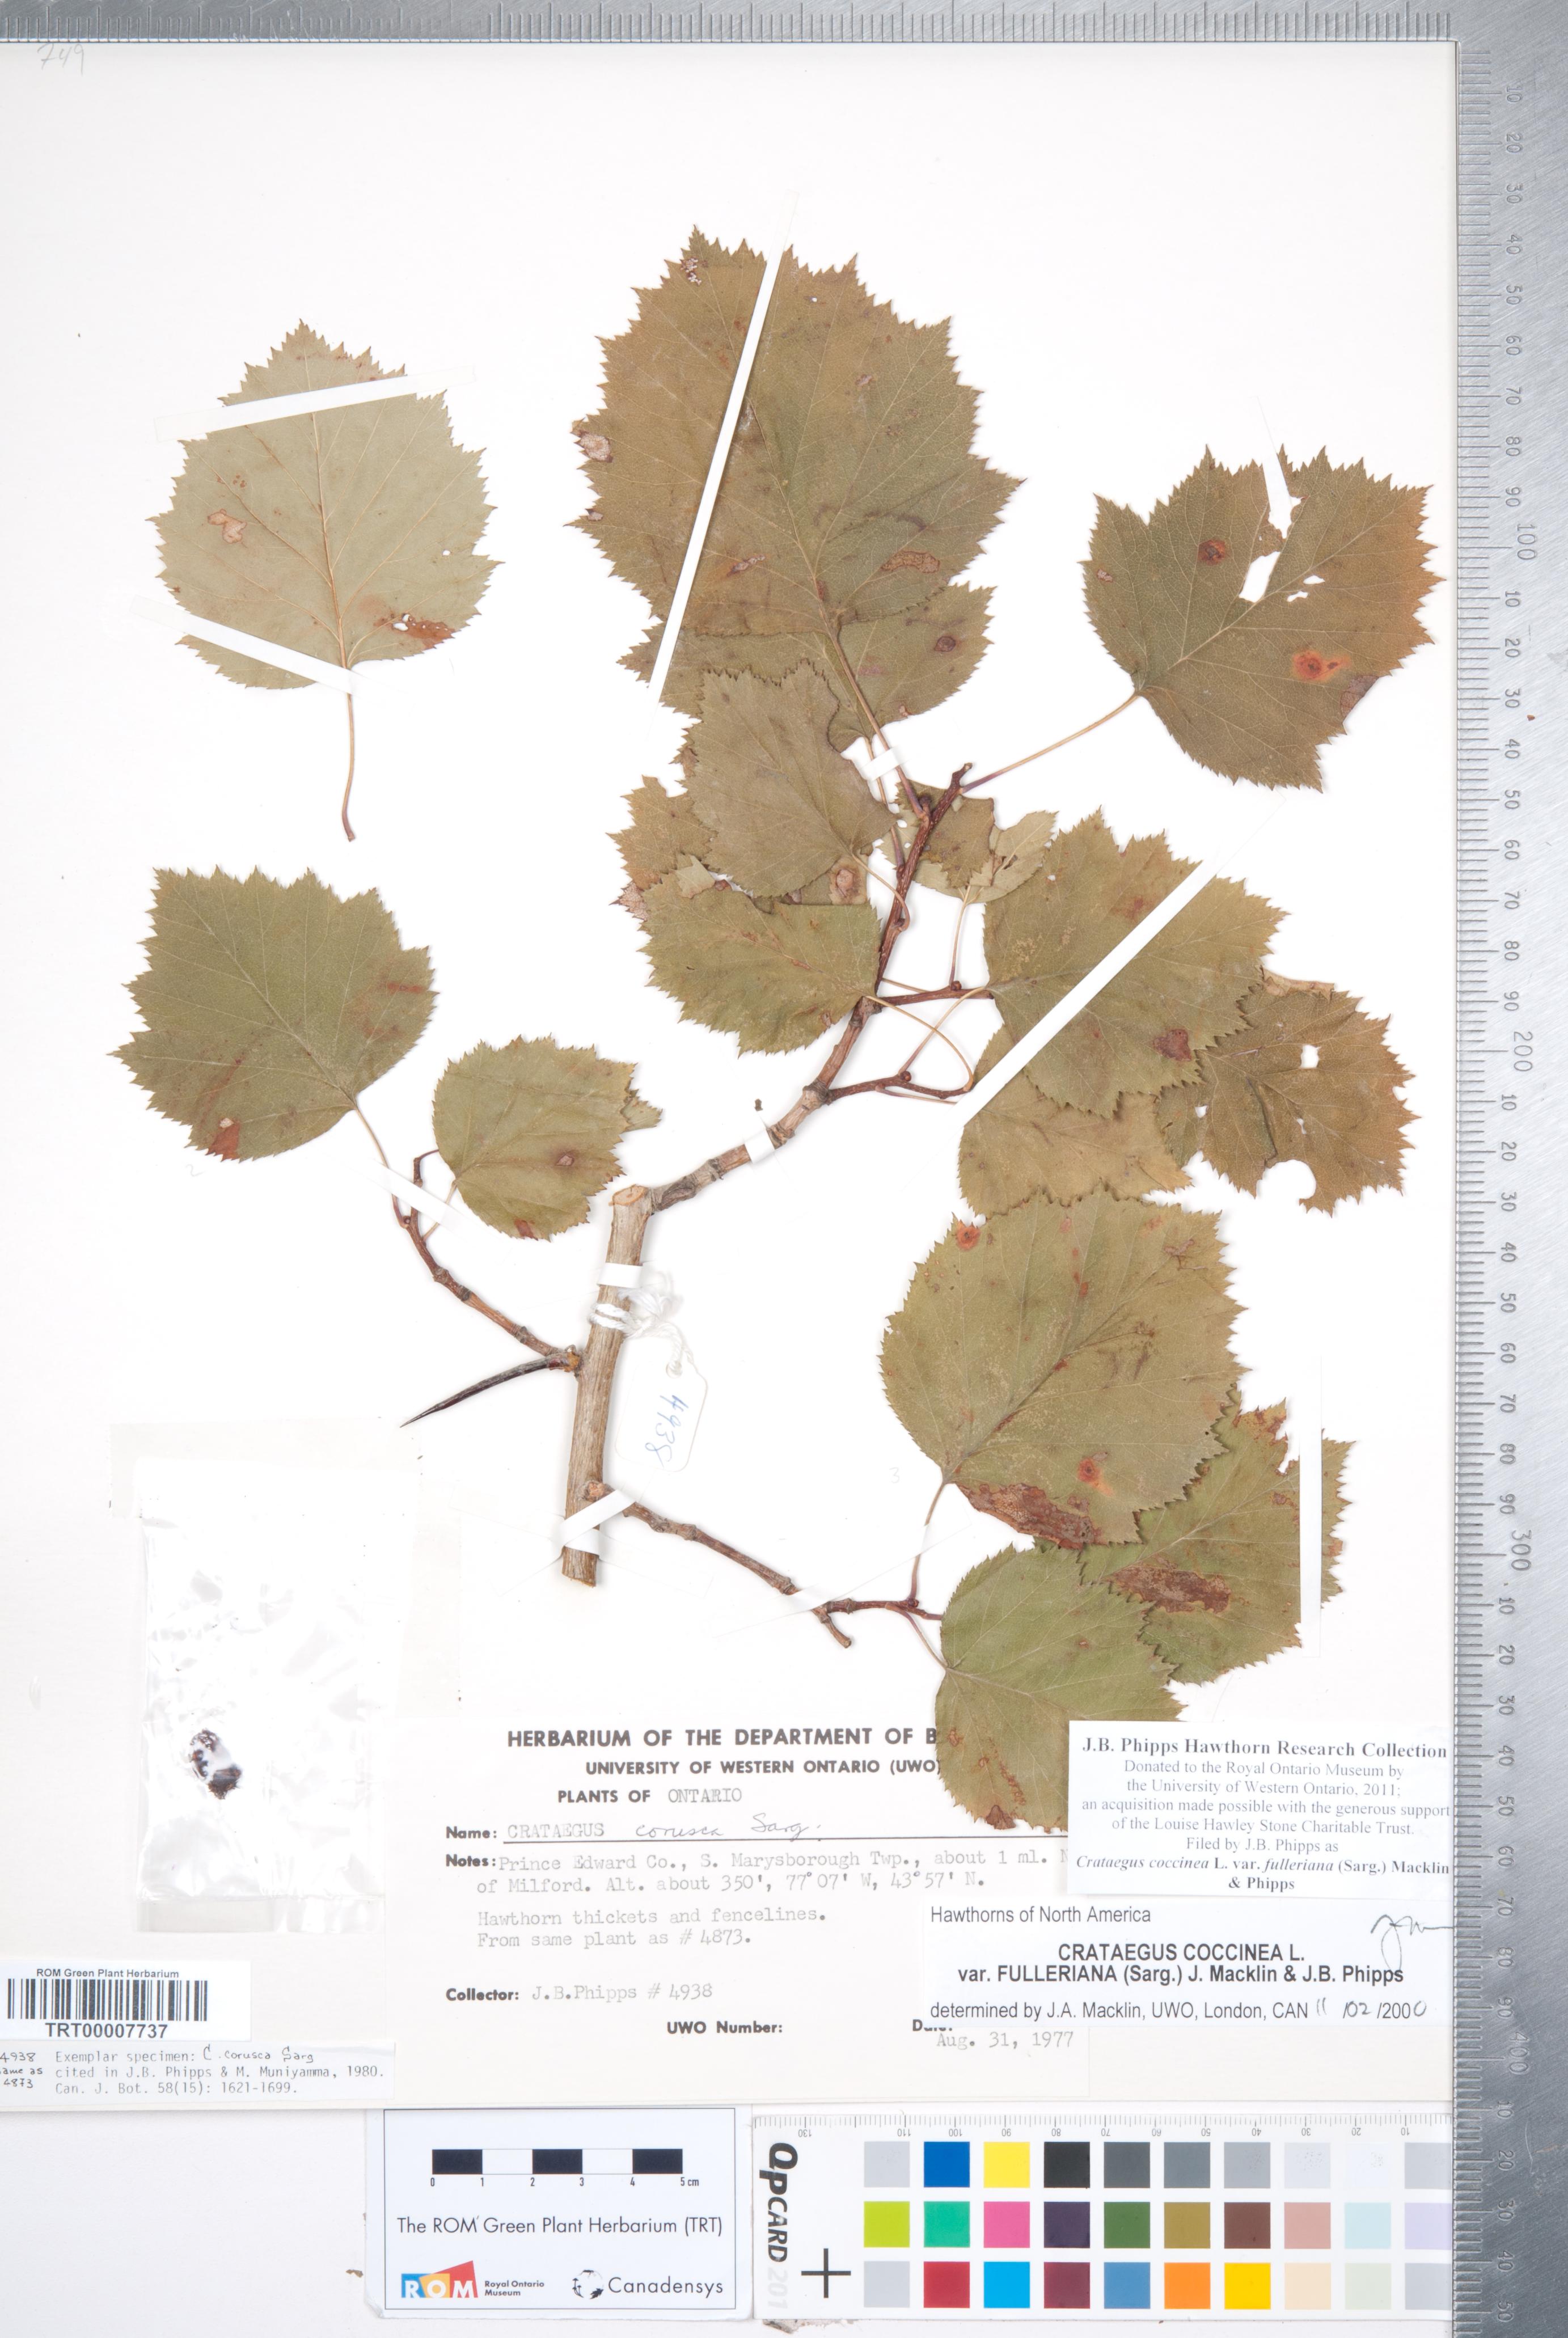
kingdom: Plantae
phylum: Tracheophyta
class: Magnoliopsida
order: Rosales
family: Rosaceae
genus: Crataegus
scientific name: Crataegus coccinea
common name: Scarlet hawthorn
